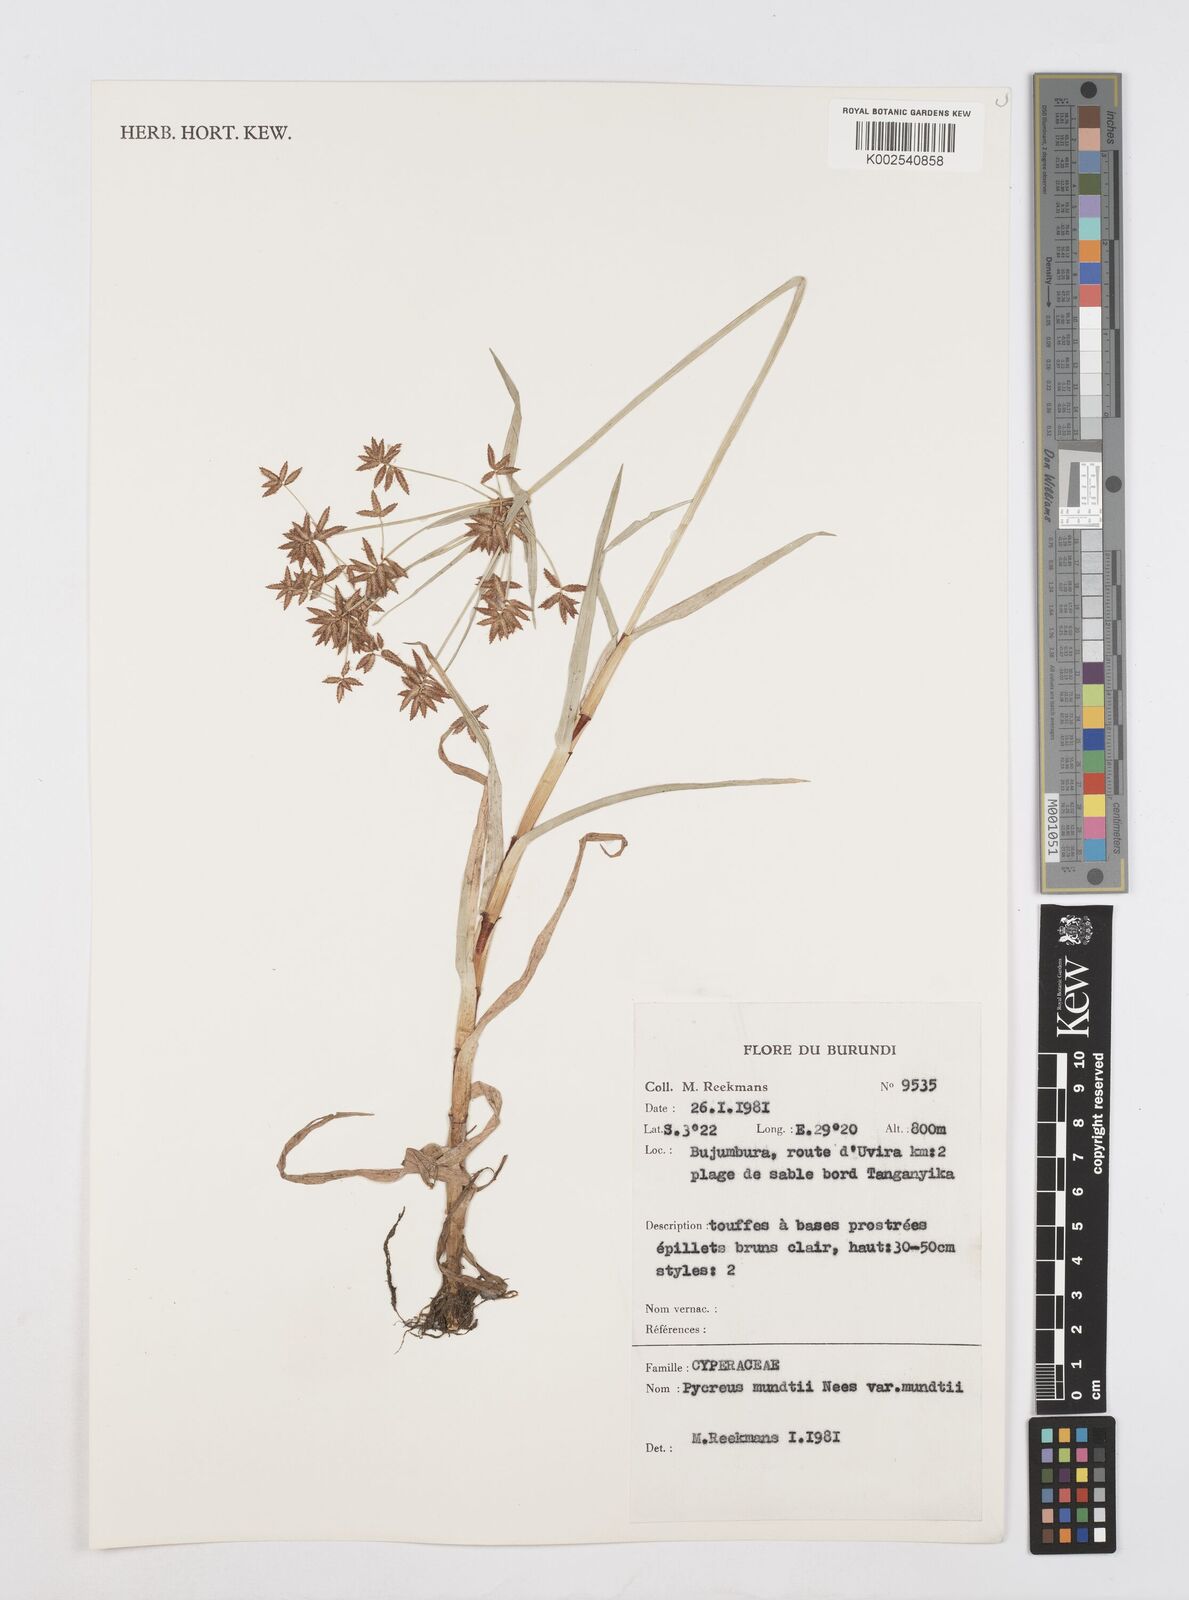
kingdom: Plantae
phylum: Tracheophyta
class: Liliopsida
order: Poales
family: Cyperaceae
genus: Cyperus
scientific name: Cyperus mundii
